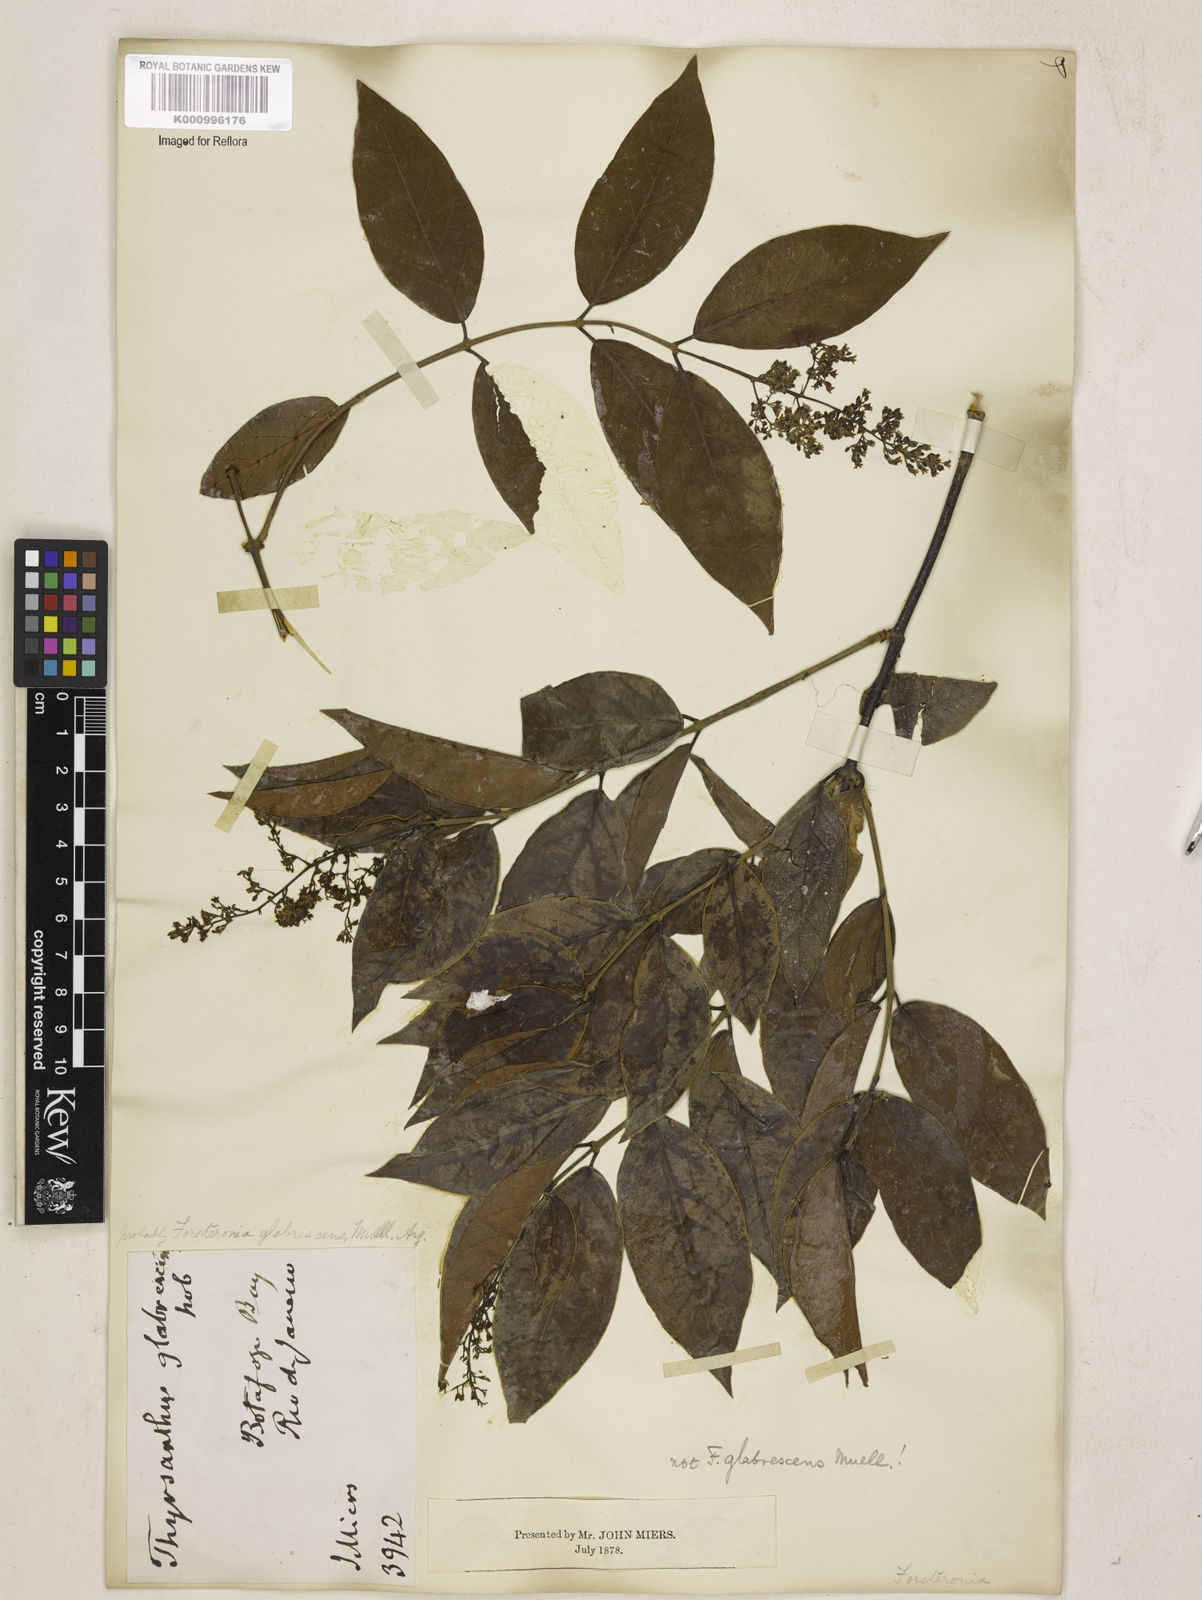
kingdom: Plantae
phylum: Tracheophyta
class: Magnoliopsida
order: Gentianales
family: Apocynaceae
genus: Forsteronia
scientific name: Forsteronia
